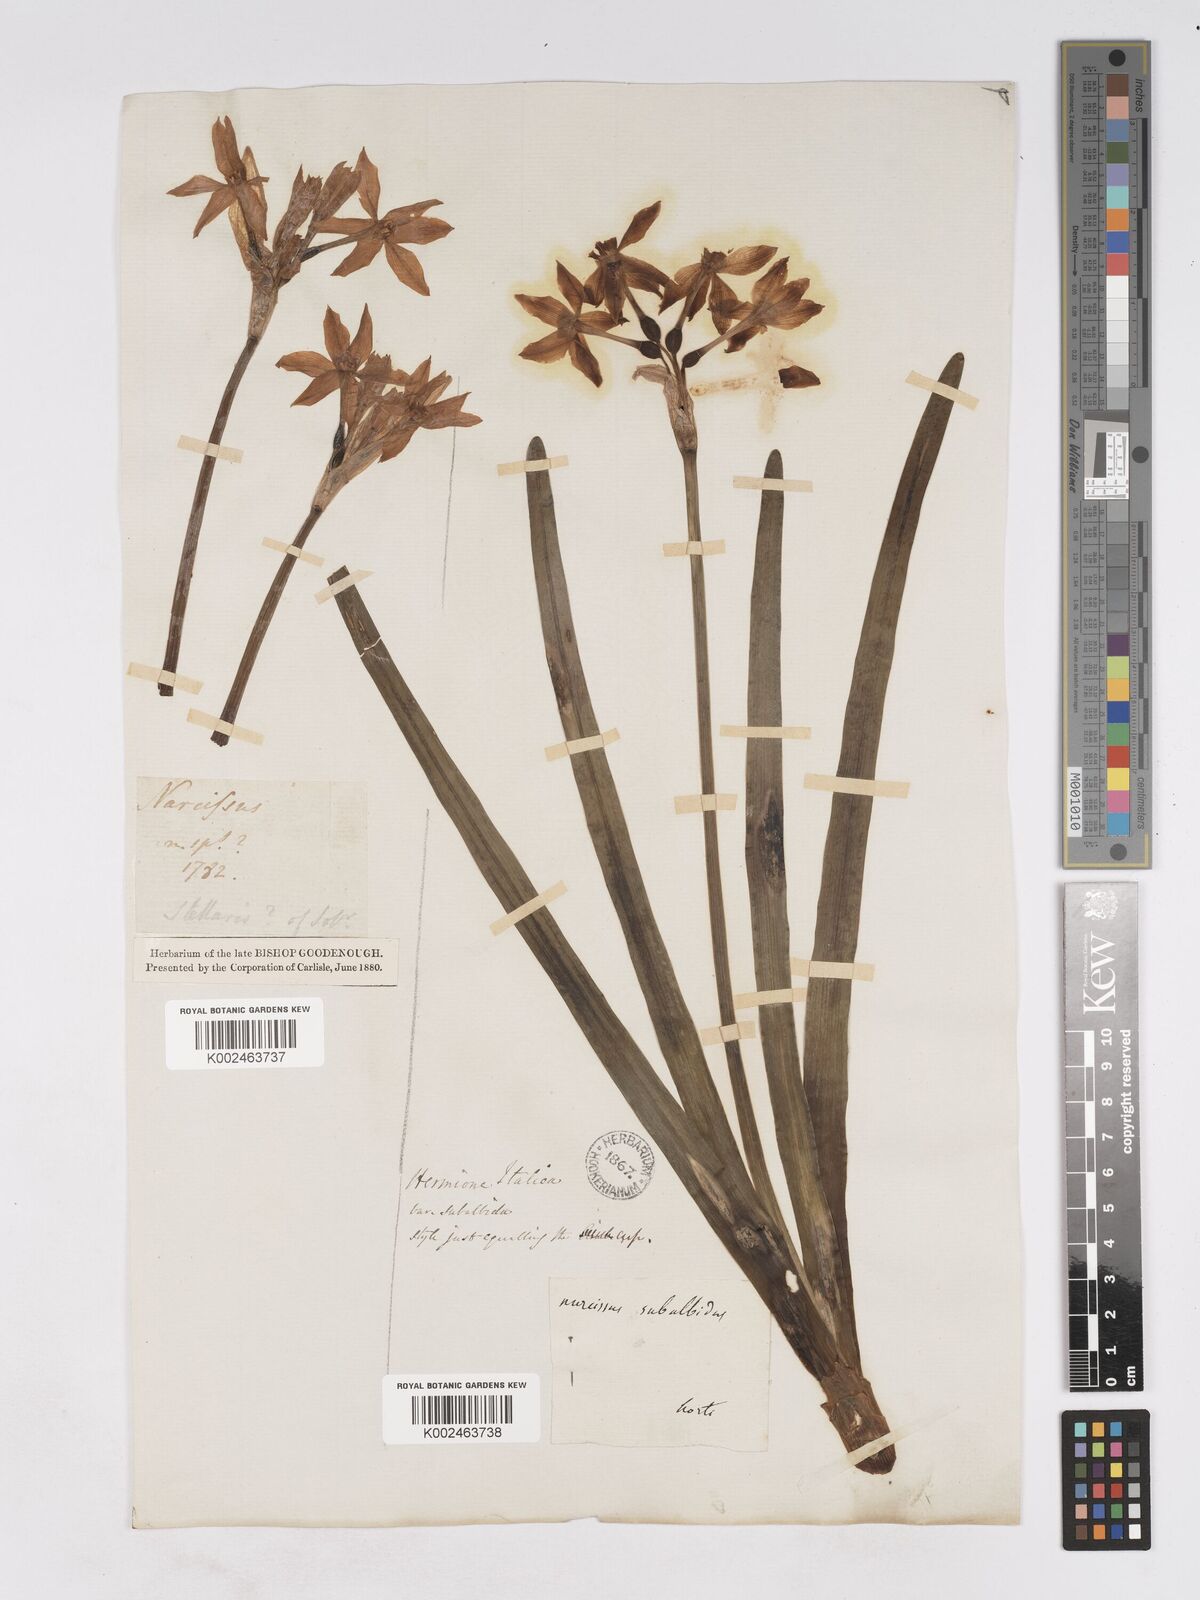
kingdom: Plantae
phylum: Tracheophyta
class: Liliopsida
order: Asparagales
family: Amaryllidaceae
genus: Narcissus
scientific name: Narcissus tazetta
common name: Bunch-flowered daffodil
